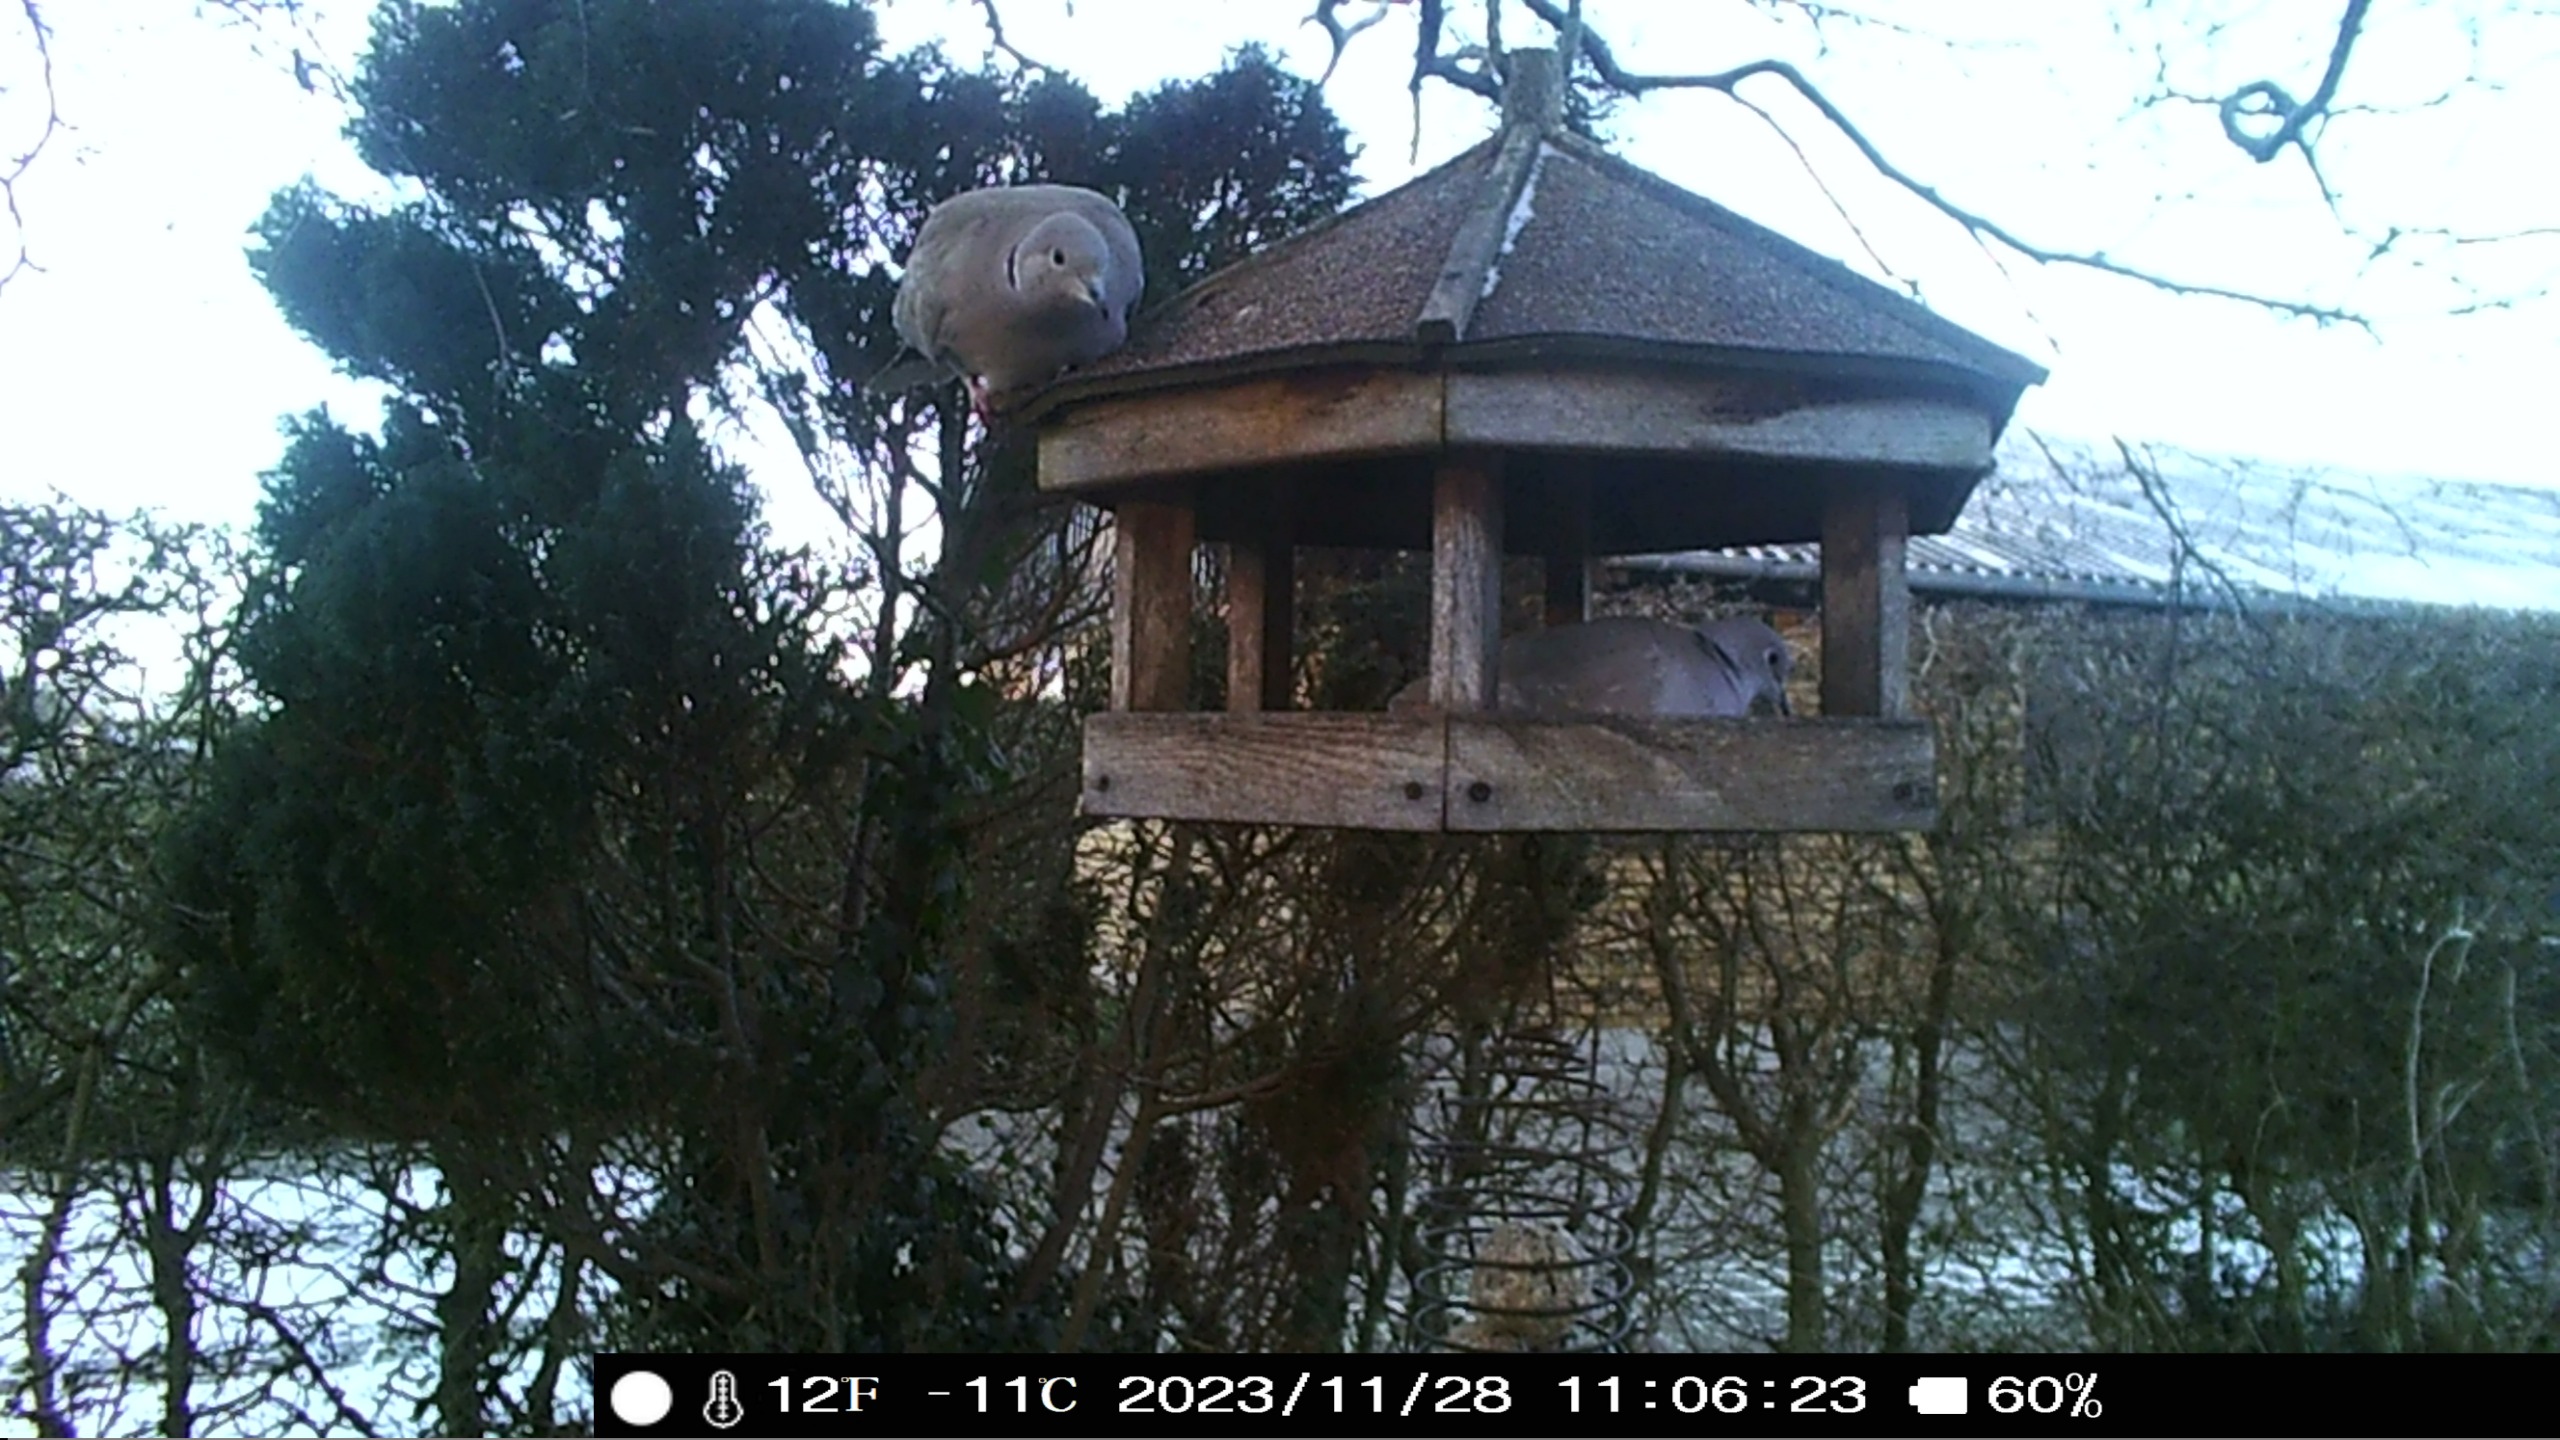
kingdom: Animalia
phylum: Chordata
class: Aves
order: Columbiformes
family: Columbidae
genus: Streptopelia
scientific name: Streptopelia decaocto
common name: Tyrkerdue
